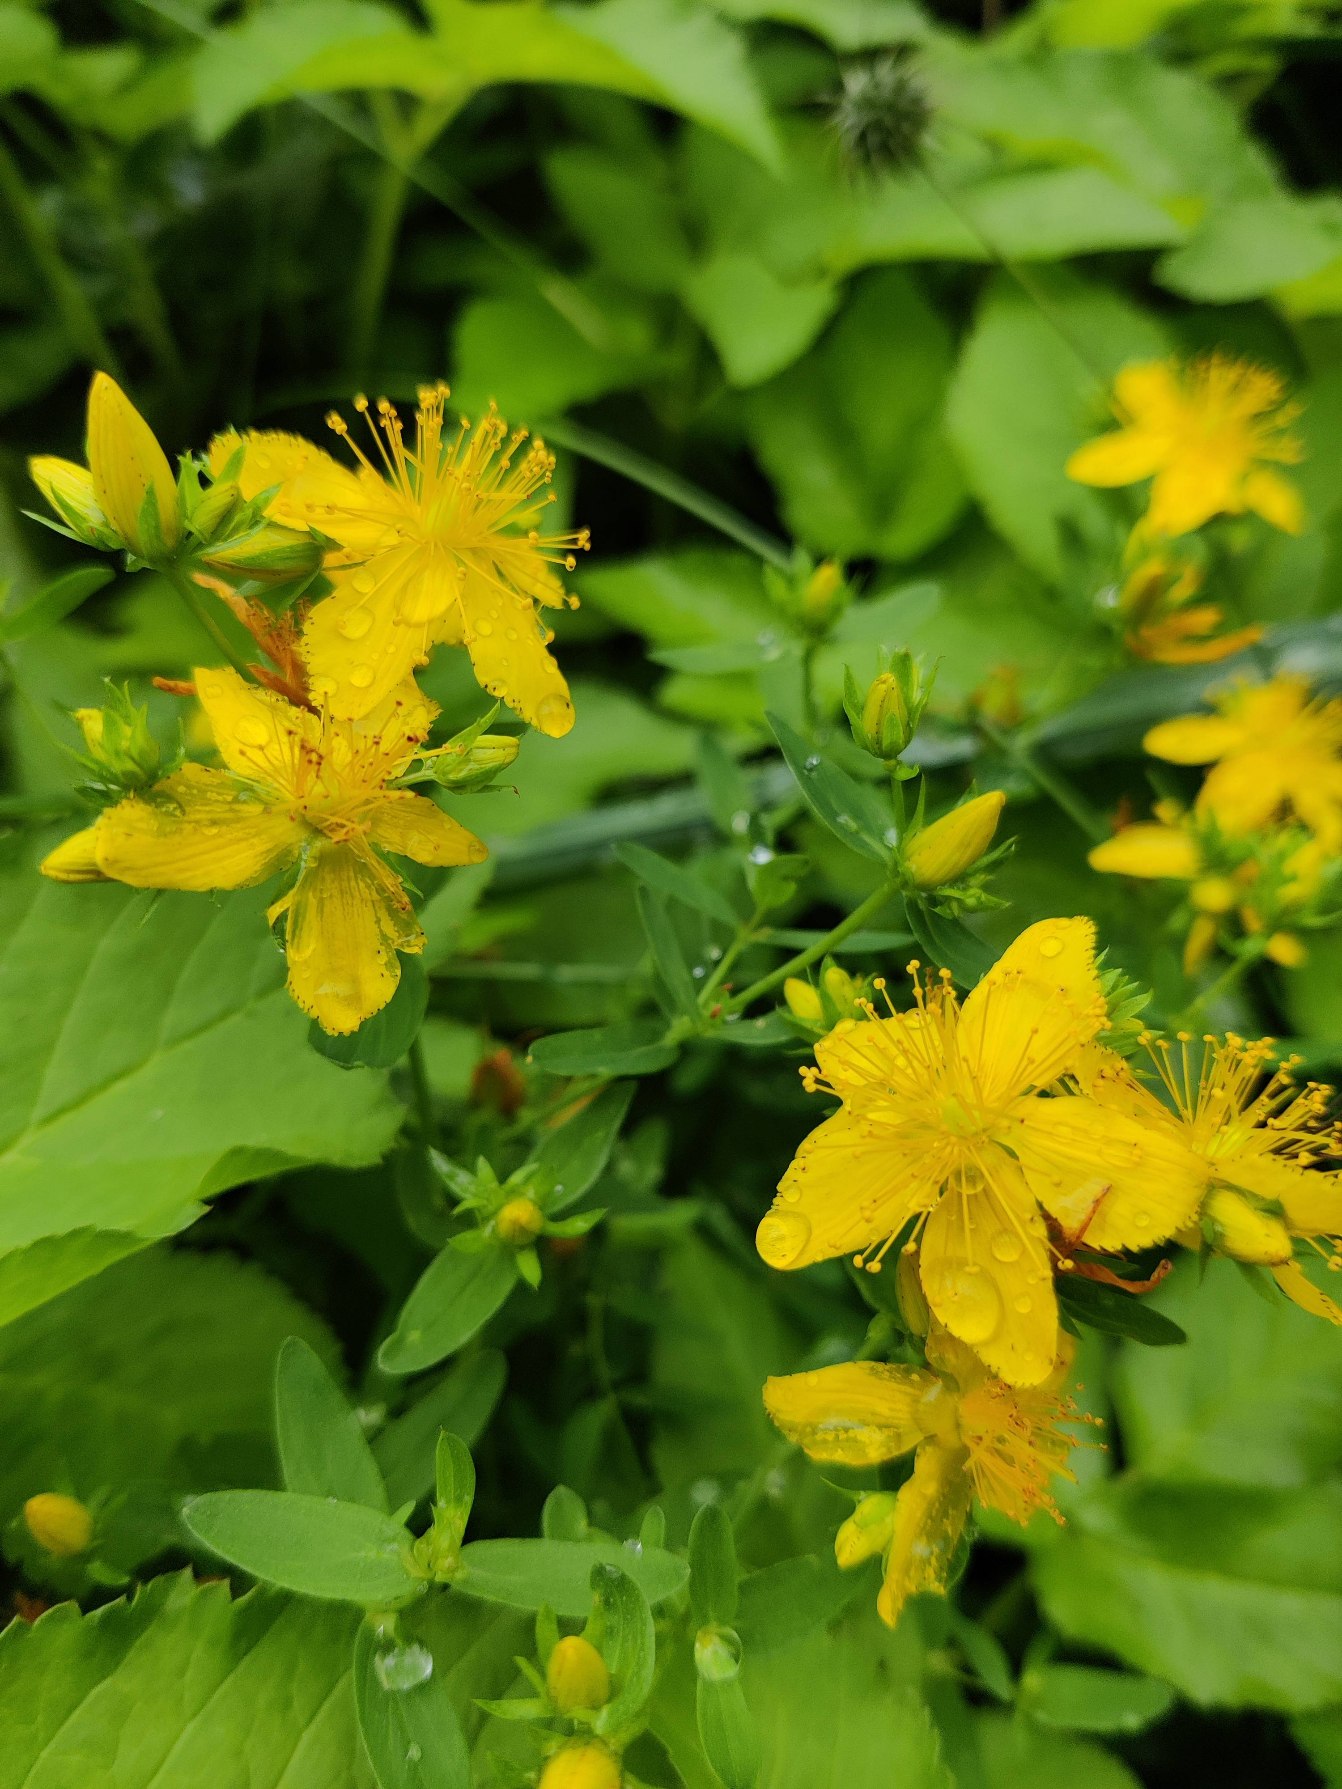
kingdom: Plantae
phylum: Tracheophyta
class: Magnoliopsida
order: Malpighiales
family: Hypericaceae
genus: Hypericum
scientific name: Hypericum perforatum
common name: Prikbladet perikon
